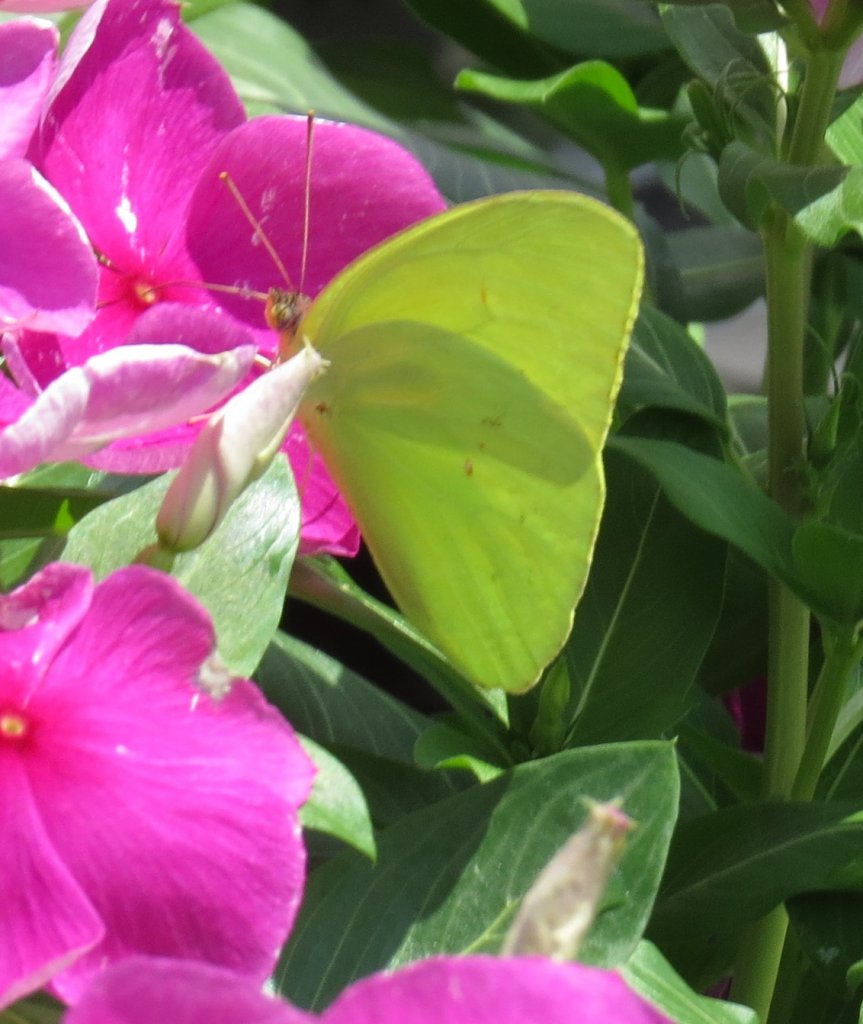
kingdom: Animalia
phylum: Arthropoda
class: Insecta
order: Lepidoptera
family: Pieridae
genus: Phoebis
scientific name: Phoebis sennae
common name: Cloudless Sulphur
